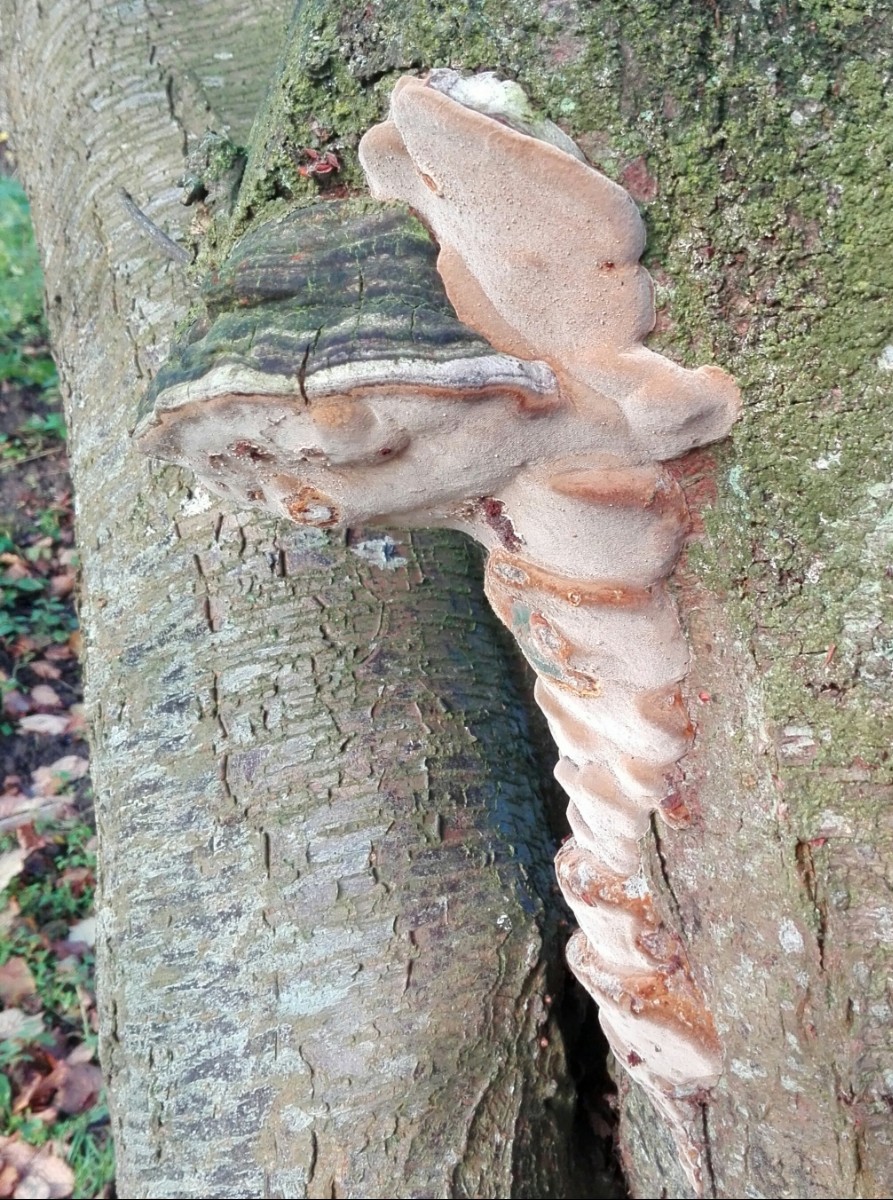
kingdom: Fungi
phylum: Basidiomycota
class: Agaricomycetes
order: Hymenochaetales
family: Hymenochaetaceae
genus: Phellinus
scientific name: Phellinus pomaceus
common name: blomme-ildporesvamp
